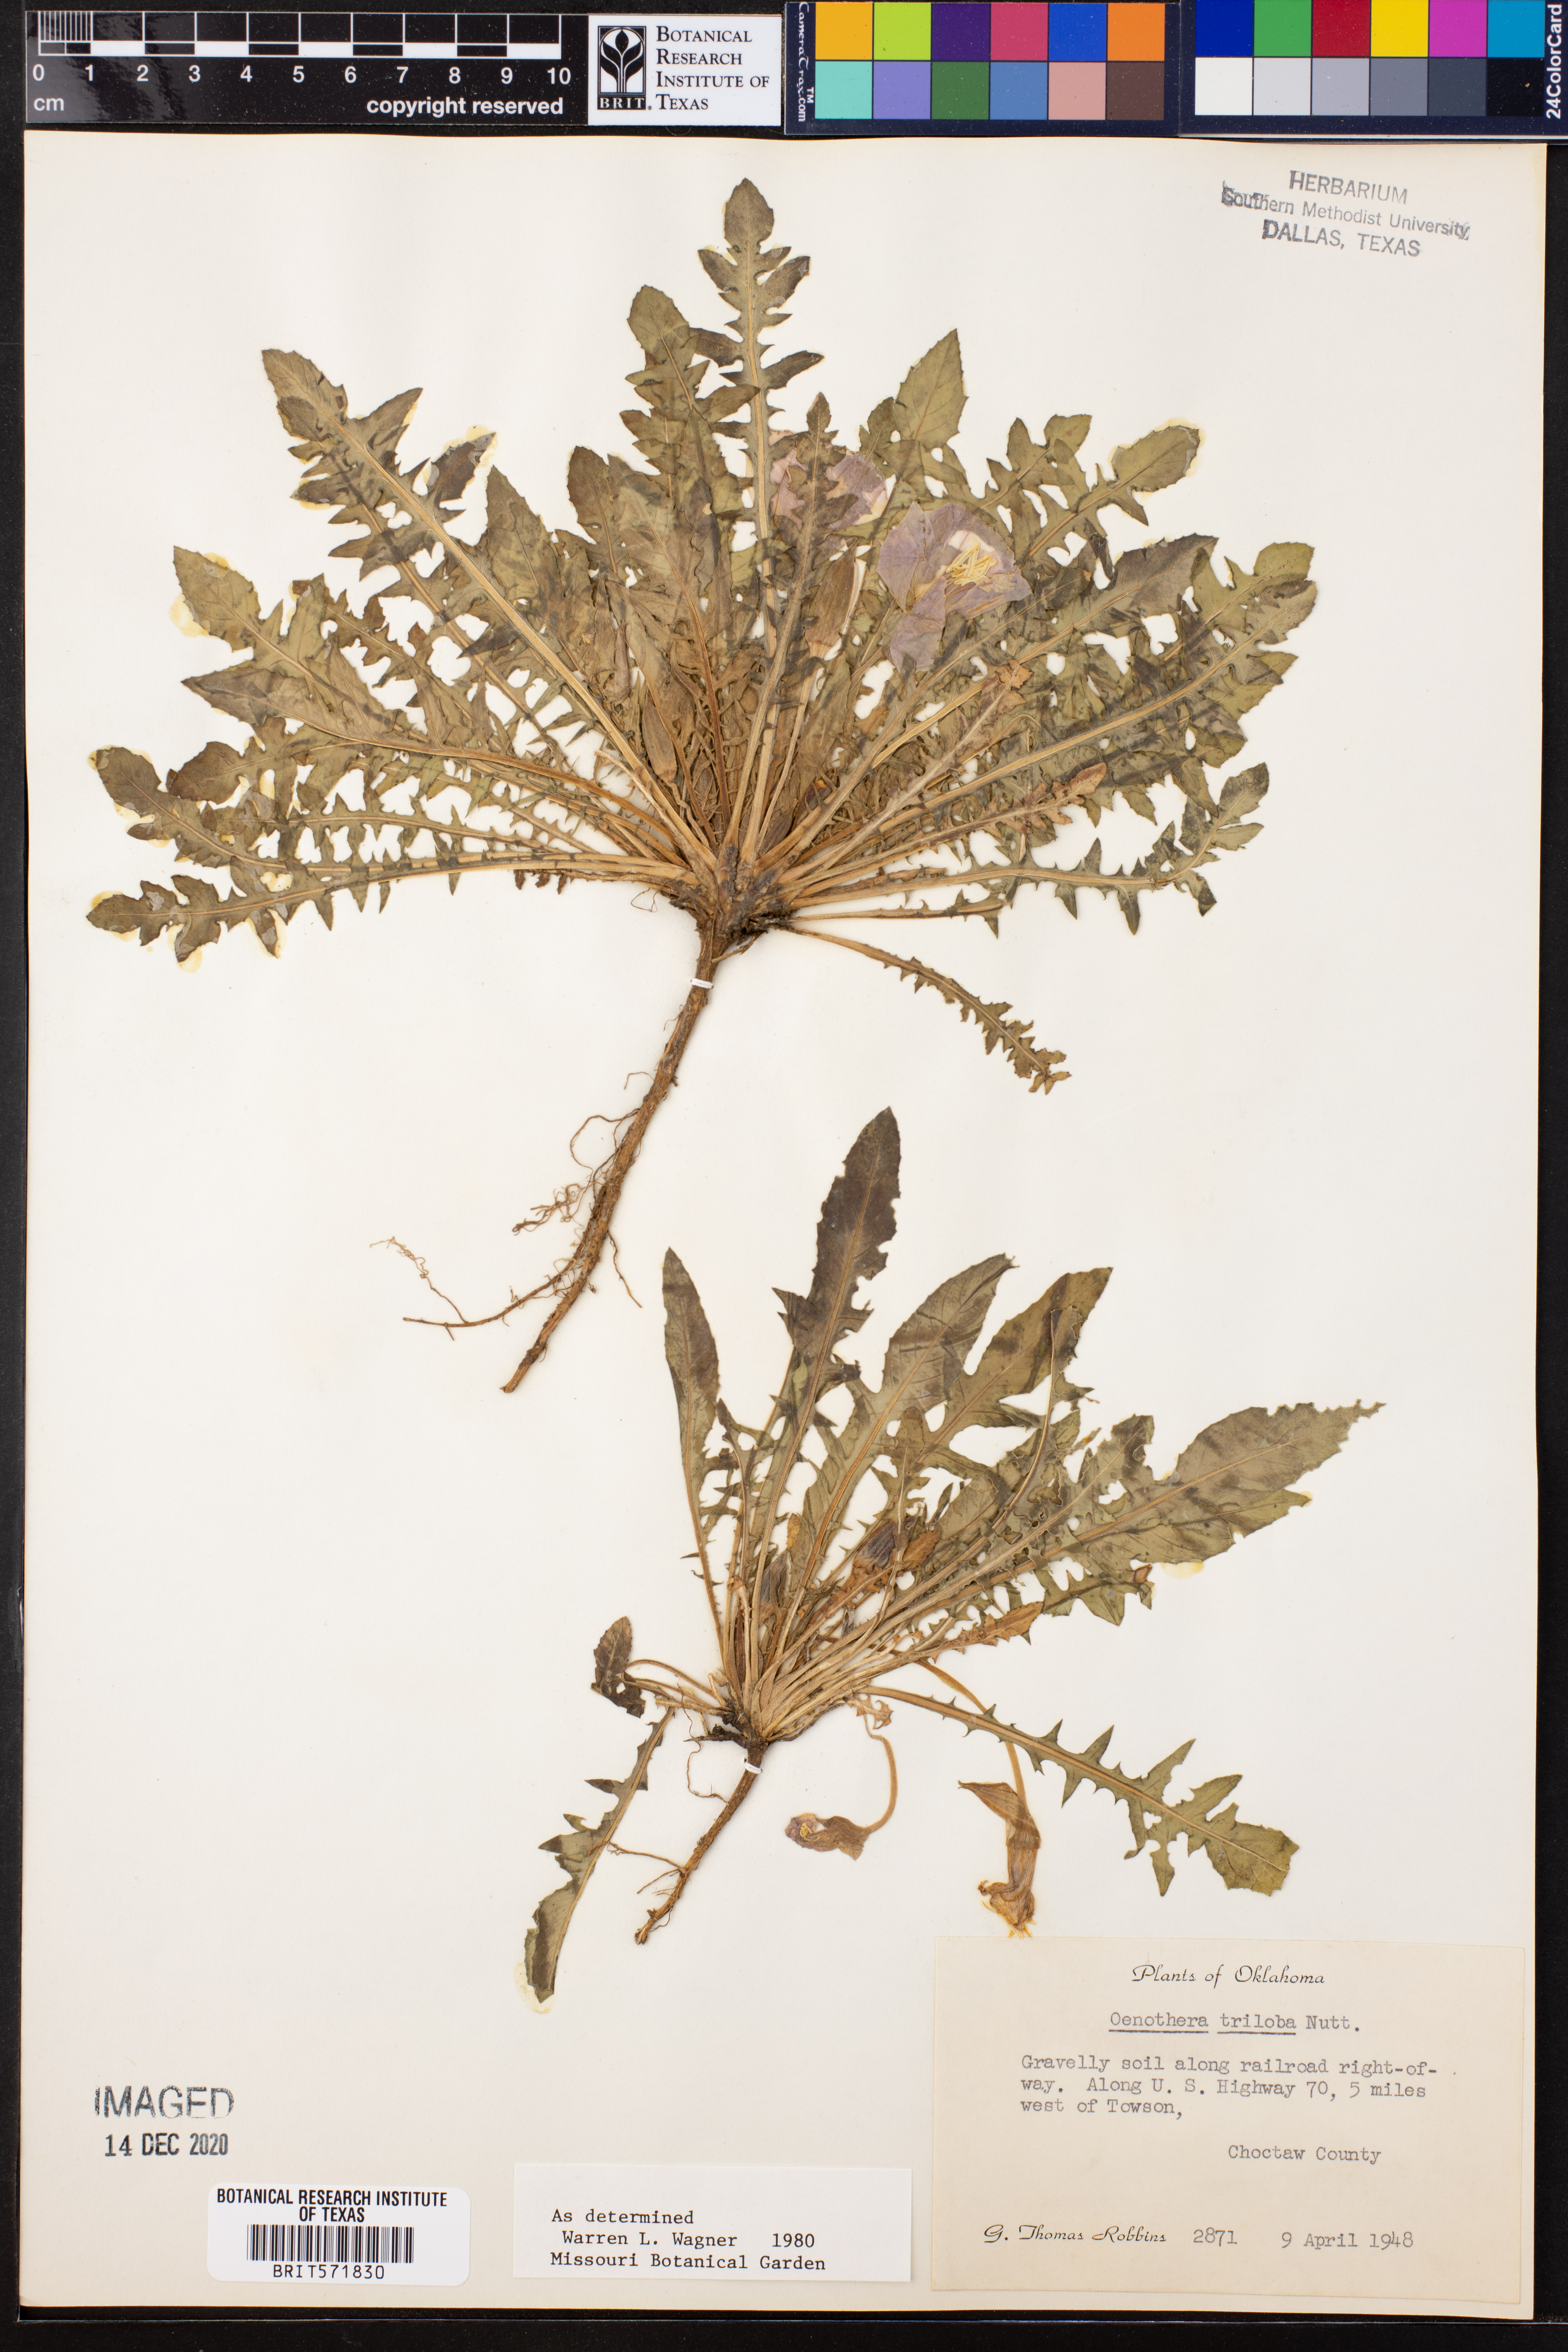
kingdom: Plantae
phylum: Tracheophyta
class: Magnoliopsida
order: Myrtales
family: Onagraceae
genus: Oenothera
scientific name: Oenothera triloba
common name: Sessile evening-primrose
